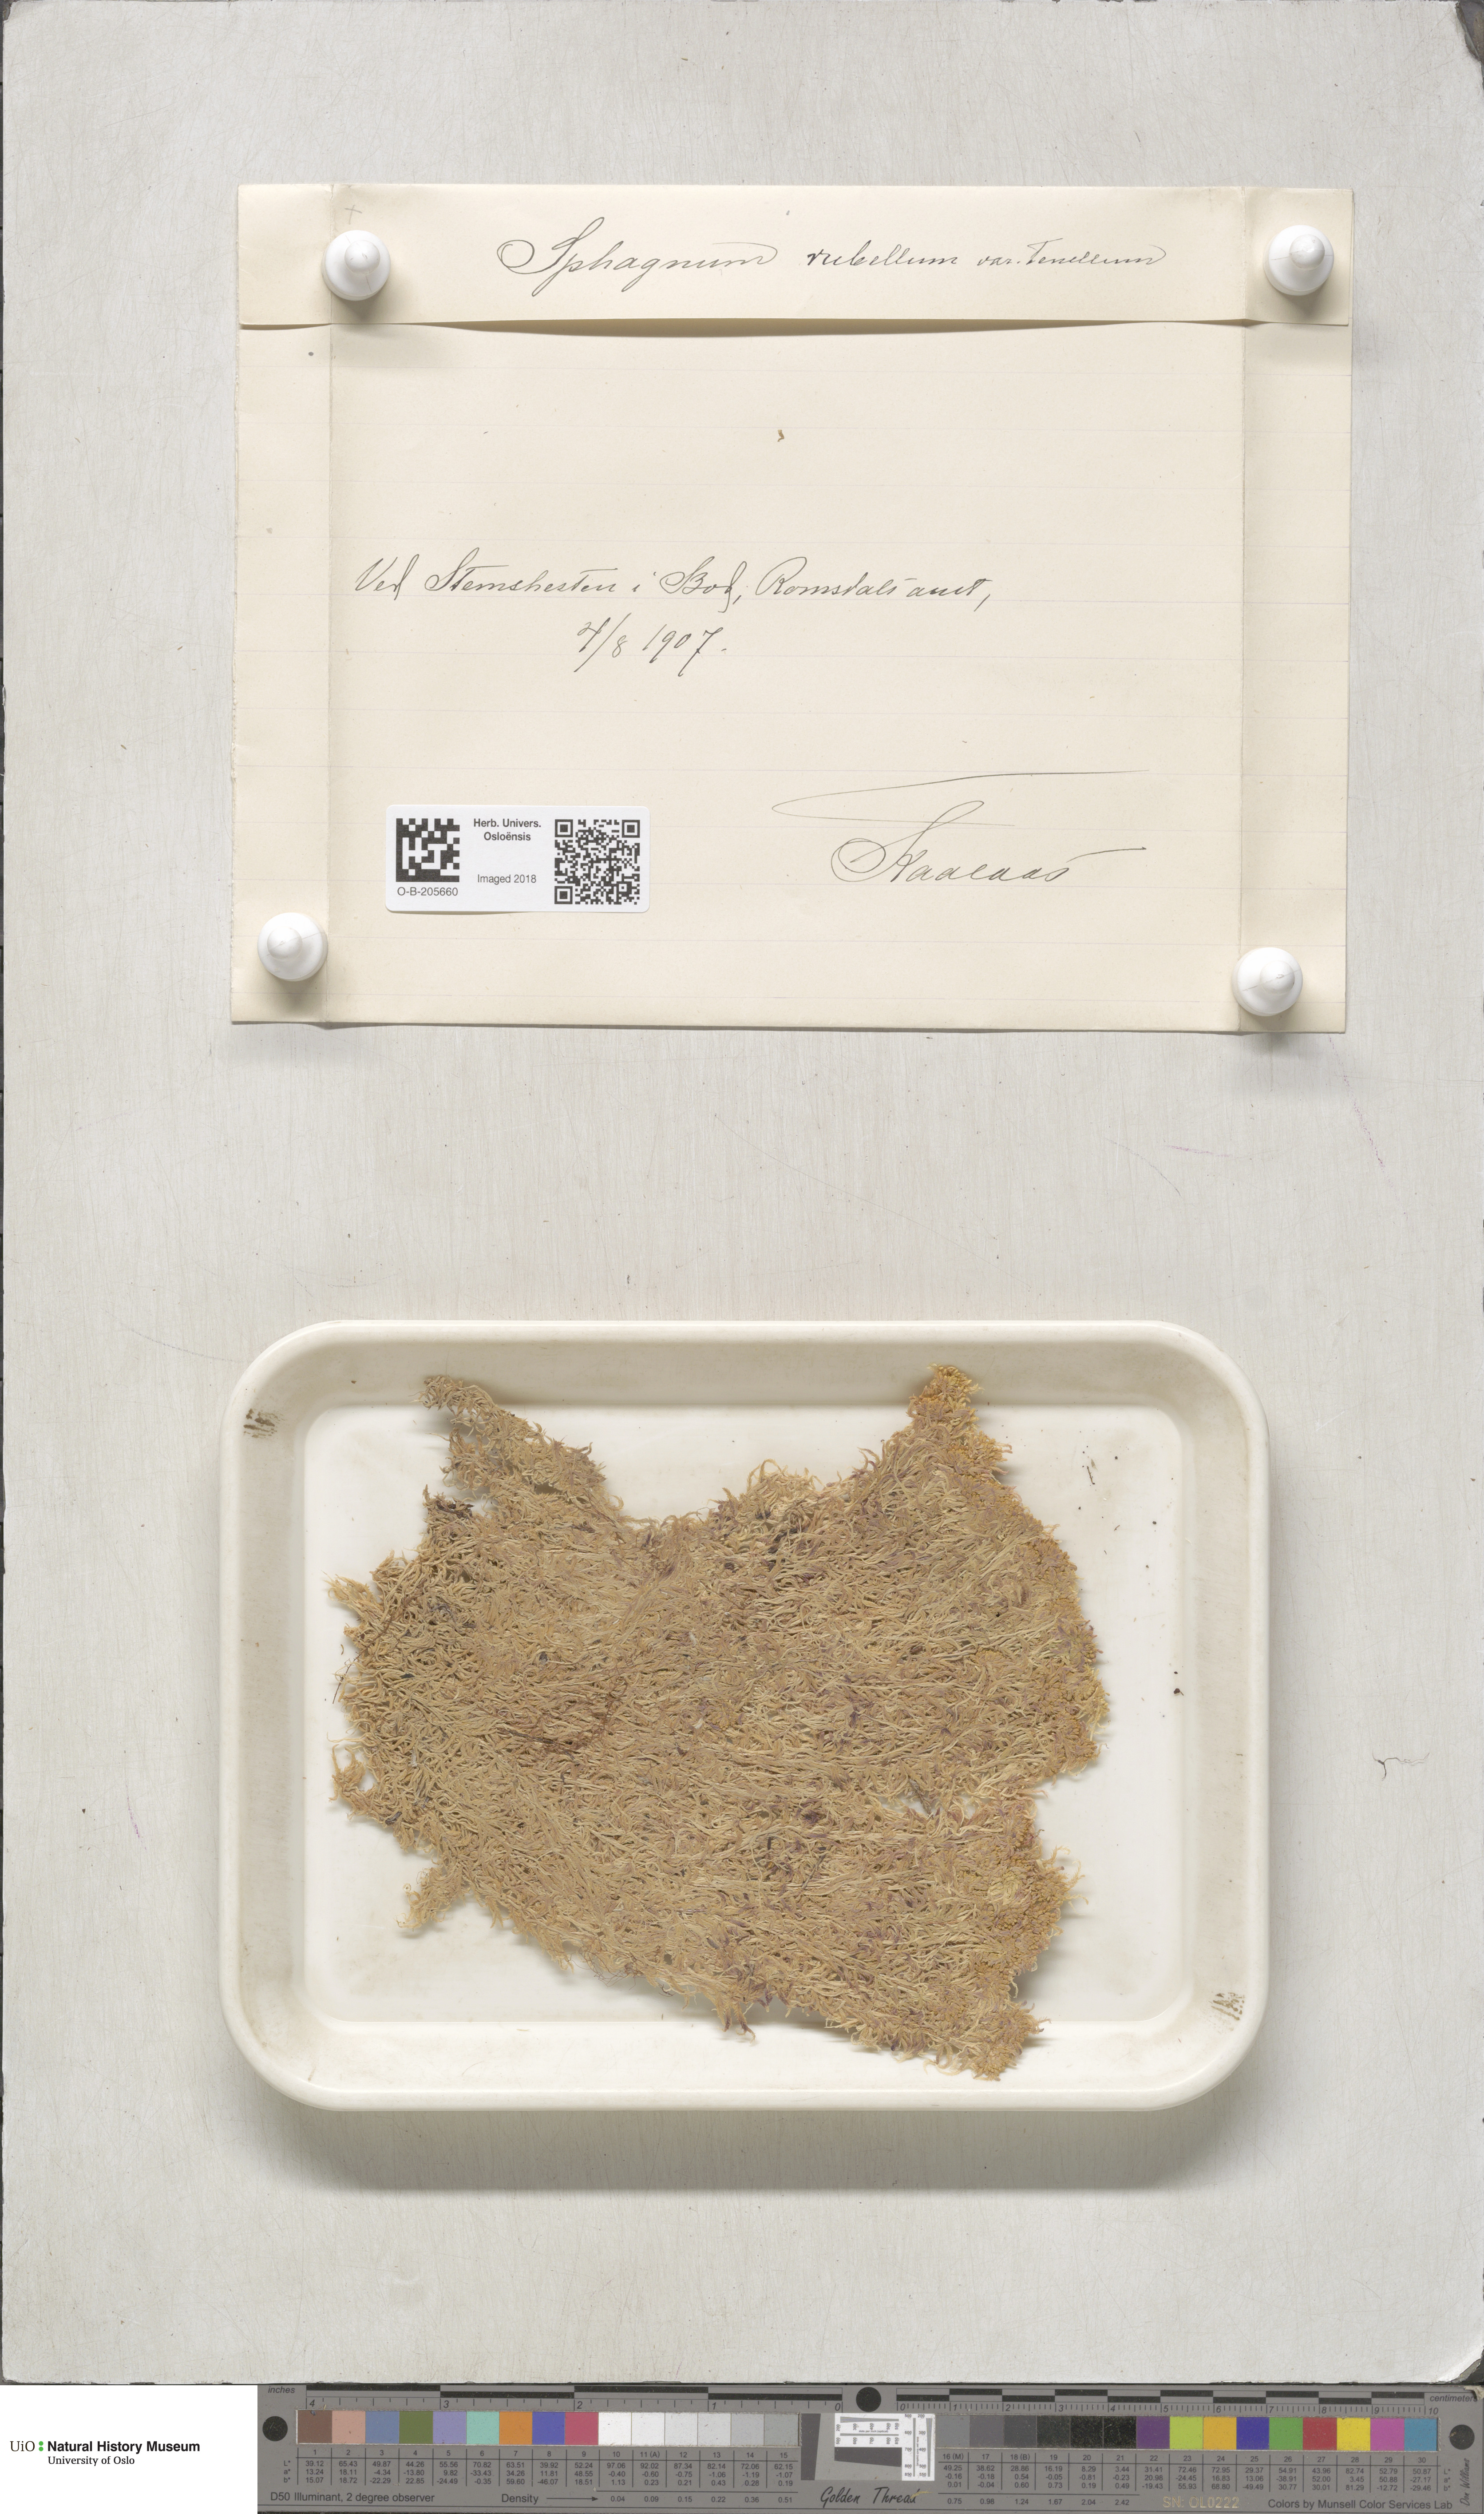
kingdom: Plantae
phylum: Bryophyta
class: Sphagnopsida
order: Sphagnales
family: Sphagnaceae
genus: Sphagnum
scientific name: Sphagnum rubellum
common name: Red peat moss
